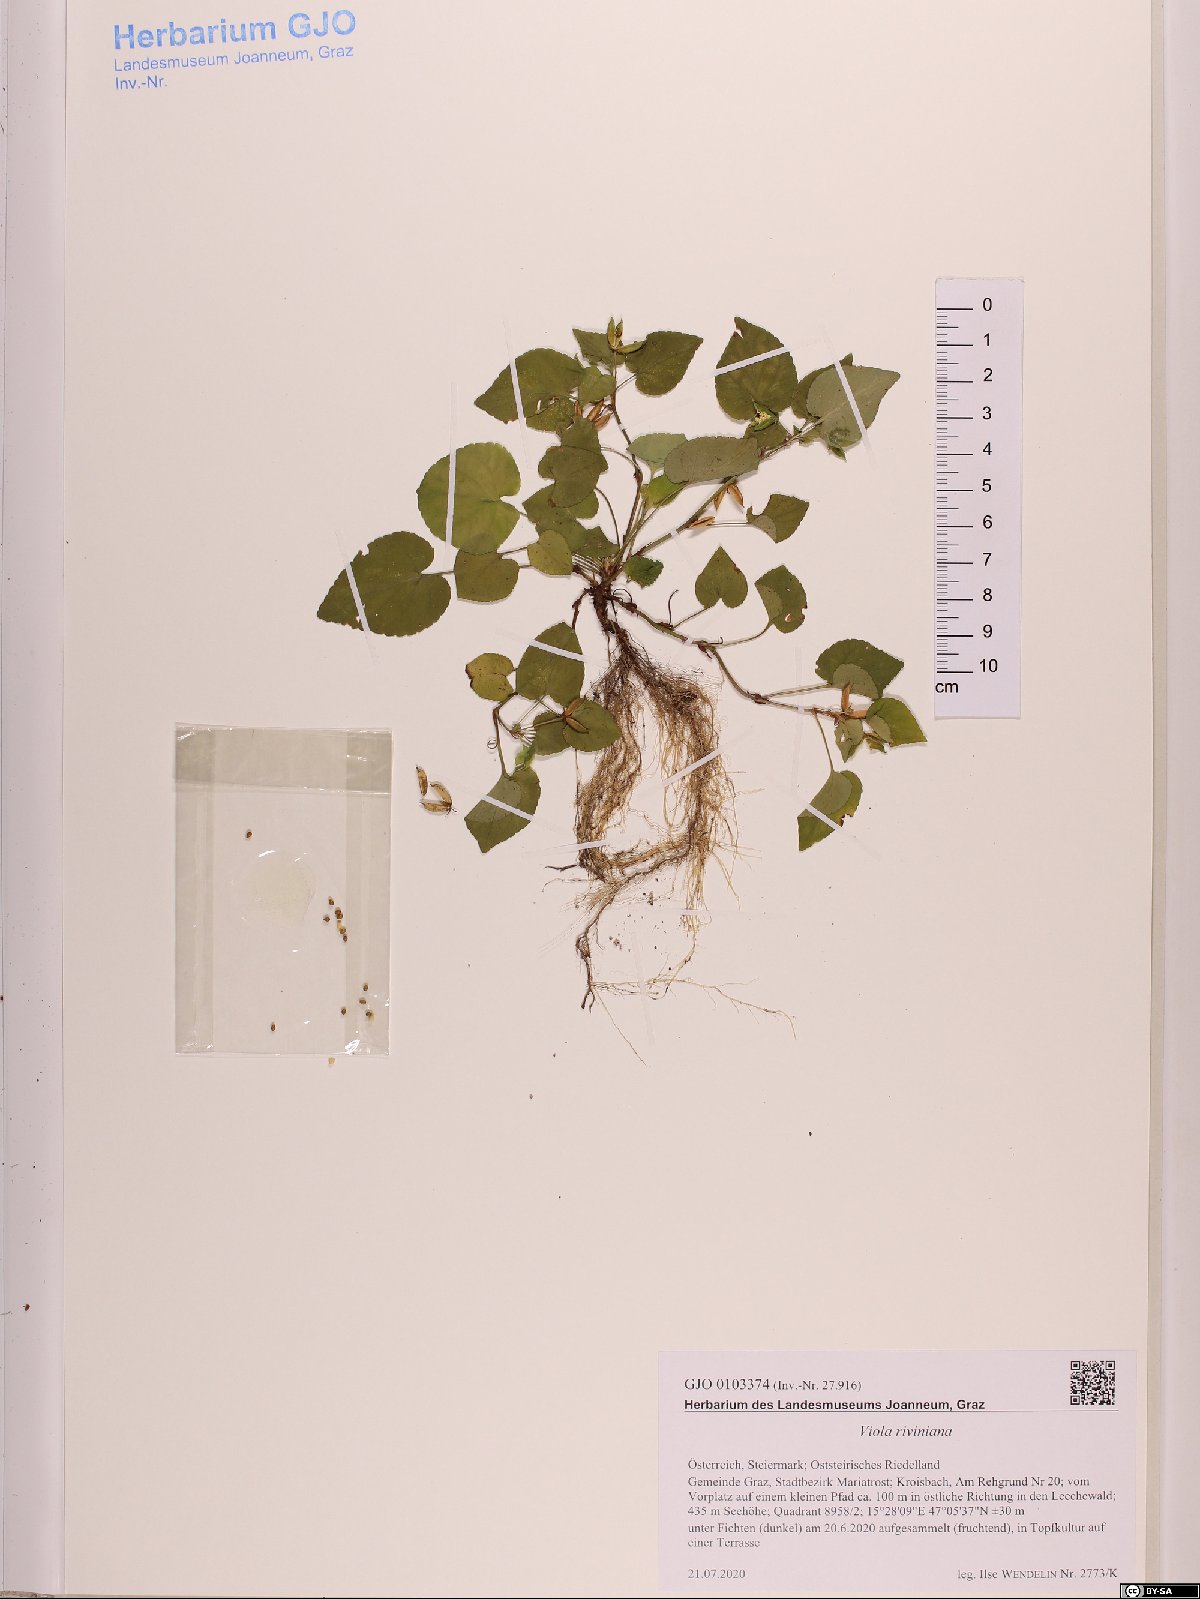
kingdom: Plantae
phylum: Tracheophyta
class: Magnoliopsida
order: Malpighiales
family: Violaceae
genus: Viola
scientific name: Viola riviniana
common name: Common dog-violet
